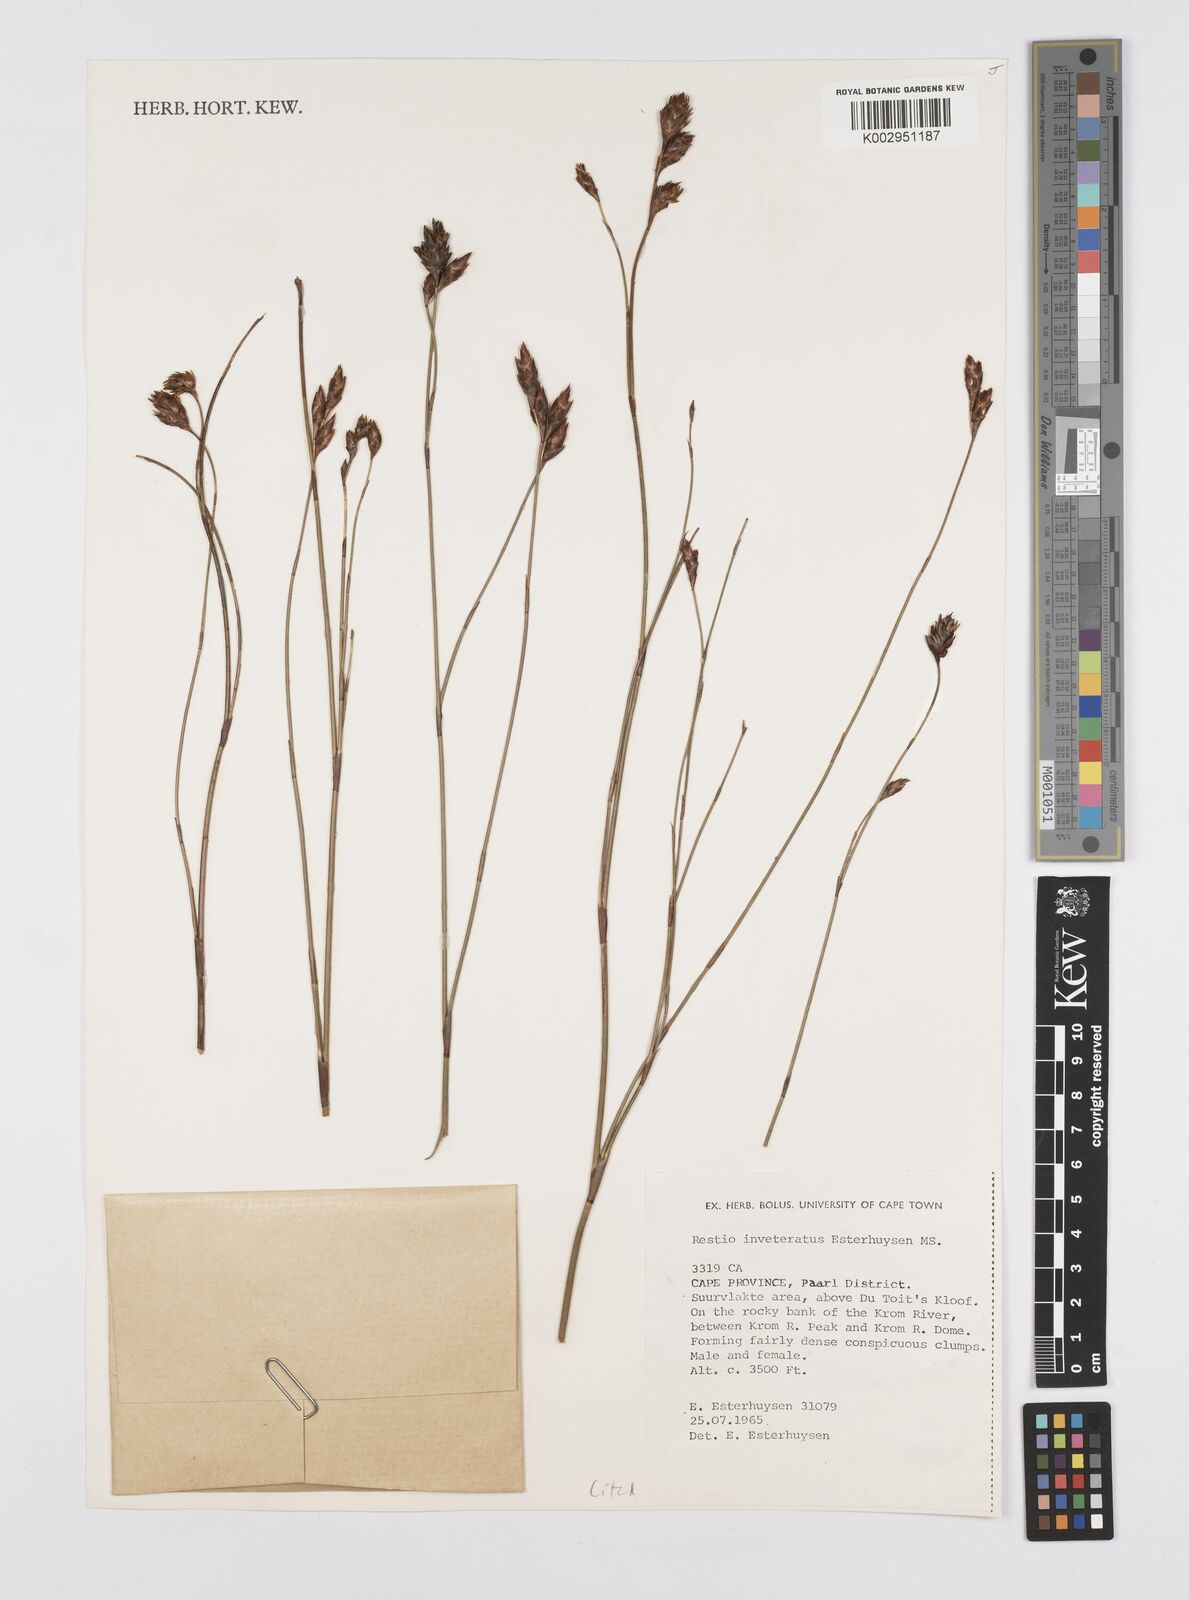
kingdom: Plantae
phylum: Tracheophyta
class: Liliopsida
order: Poales
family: Restionaceae
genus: Restio
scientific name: Restio inveteratus
